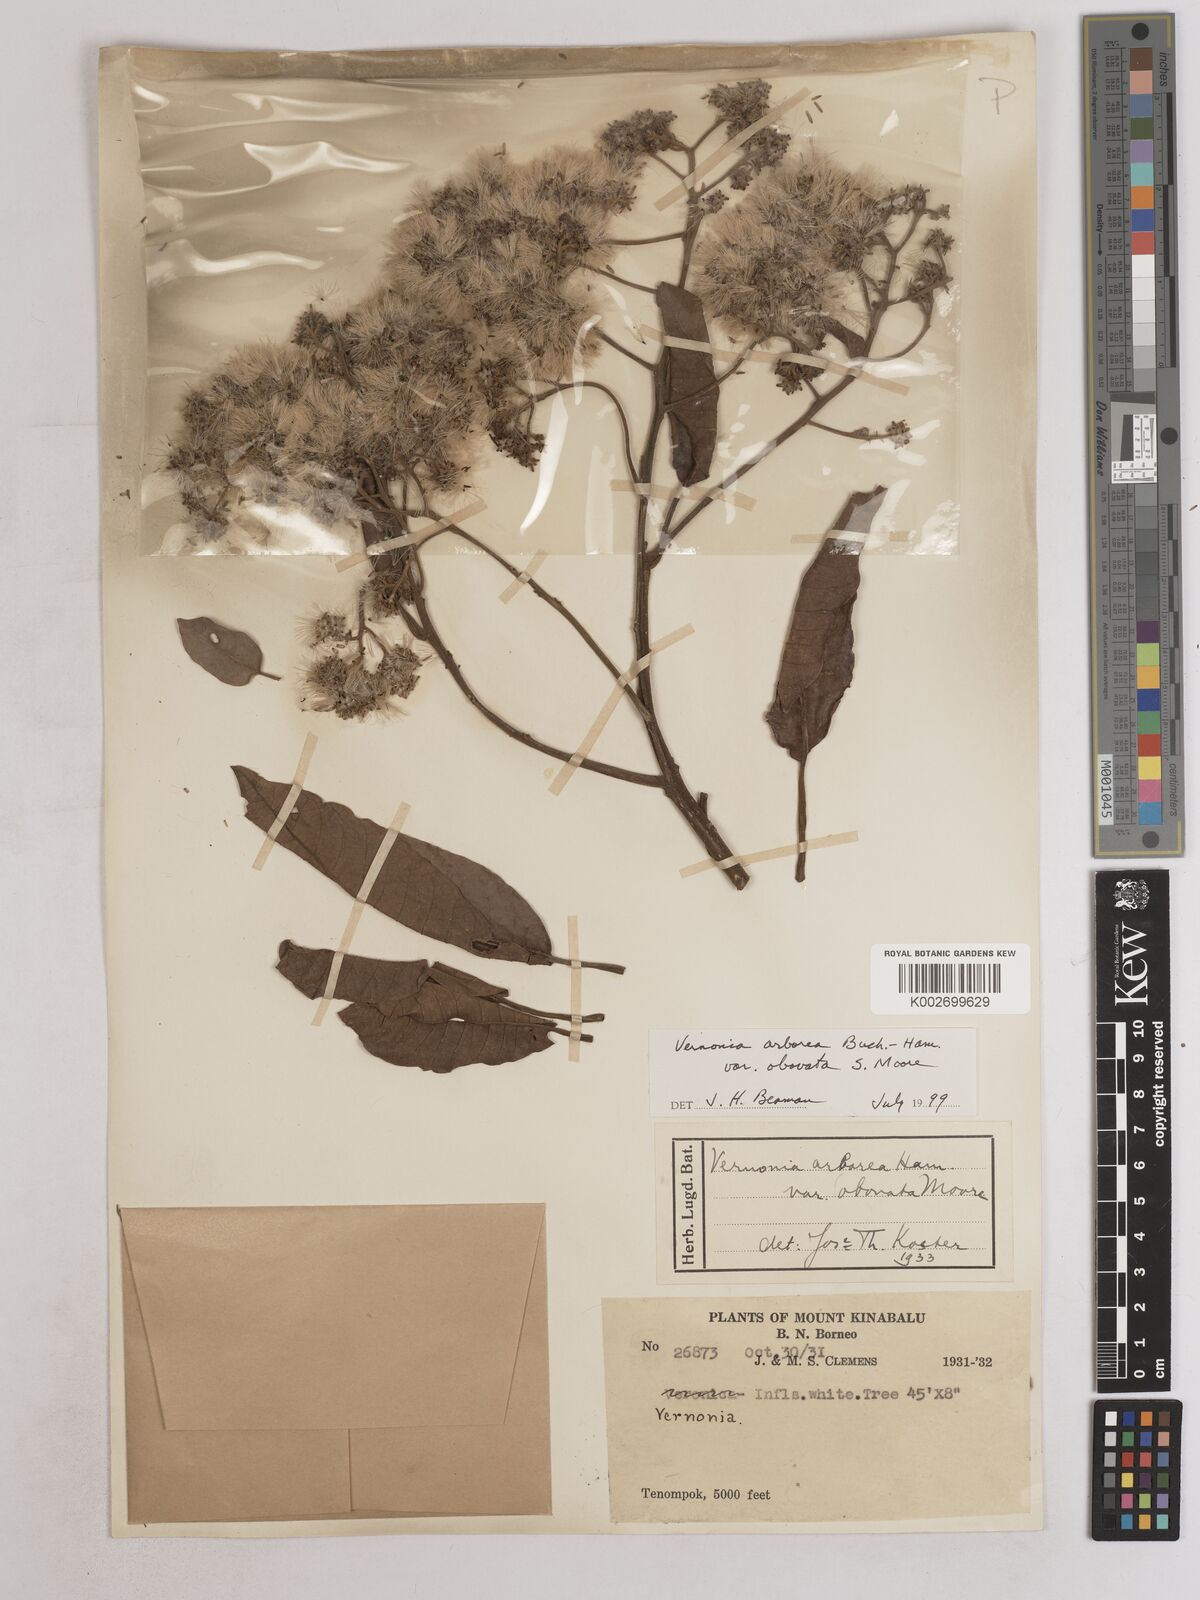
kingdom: Plantae
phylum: Tracheophyta
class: Magnoliopsida
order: Asterales
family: Asteraceae
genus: Strobocalyx
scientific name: Strobocalyx arborea
